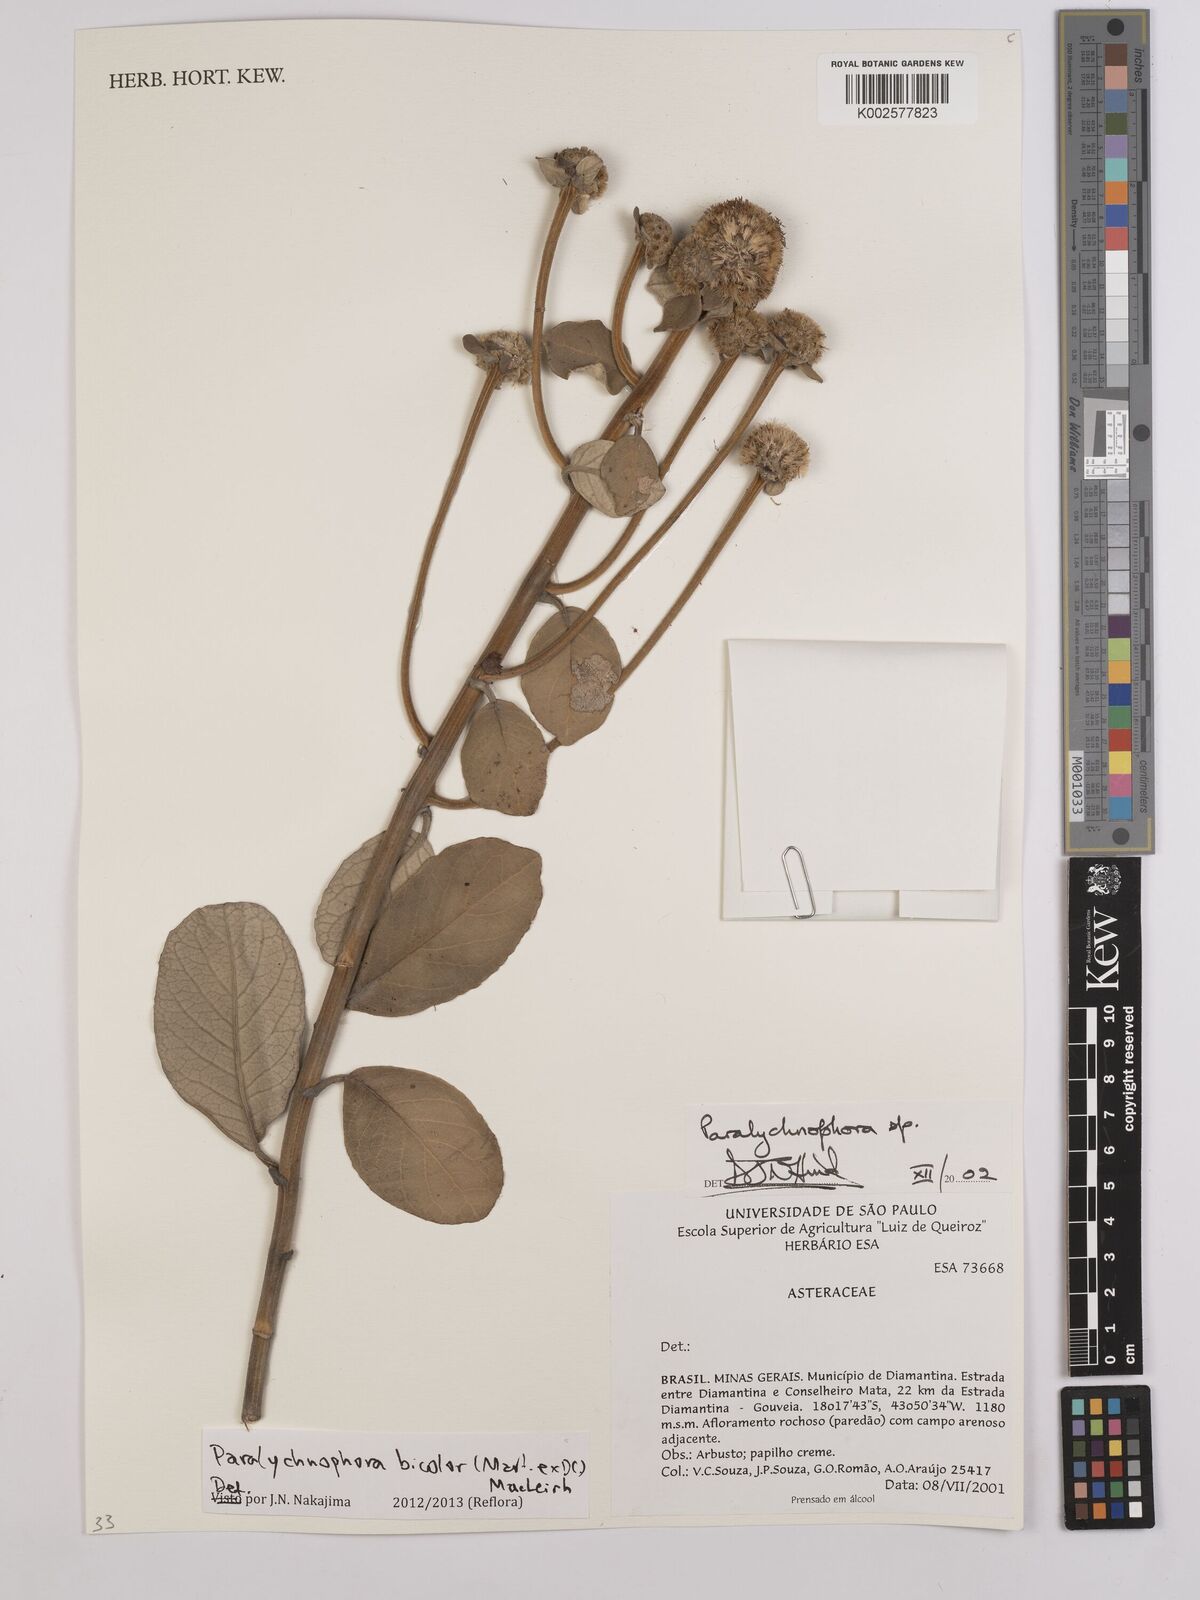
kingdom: Plantae
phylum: Tracheophyta
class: Magnoliopsida
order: Asterales
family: Asteraceae
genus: Paralychnophora
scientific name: Paralychnophora bicolor
